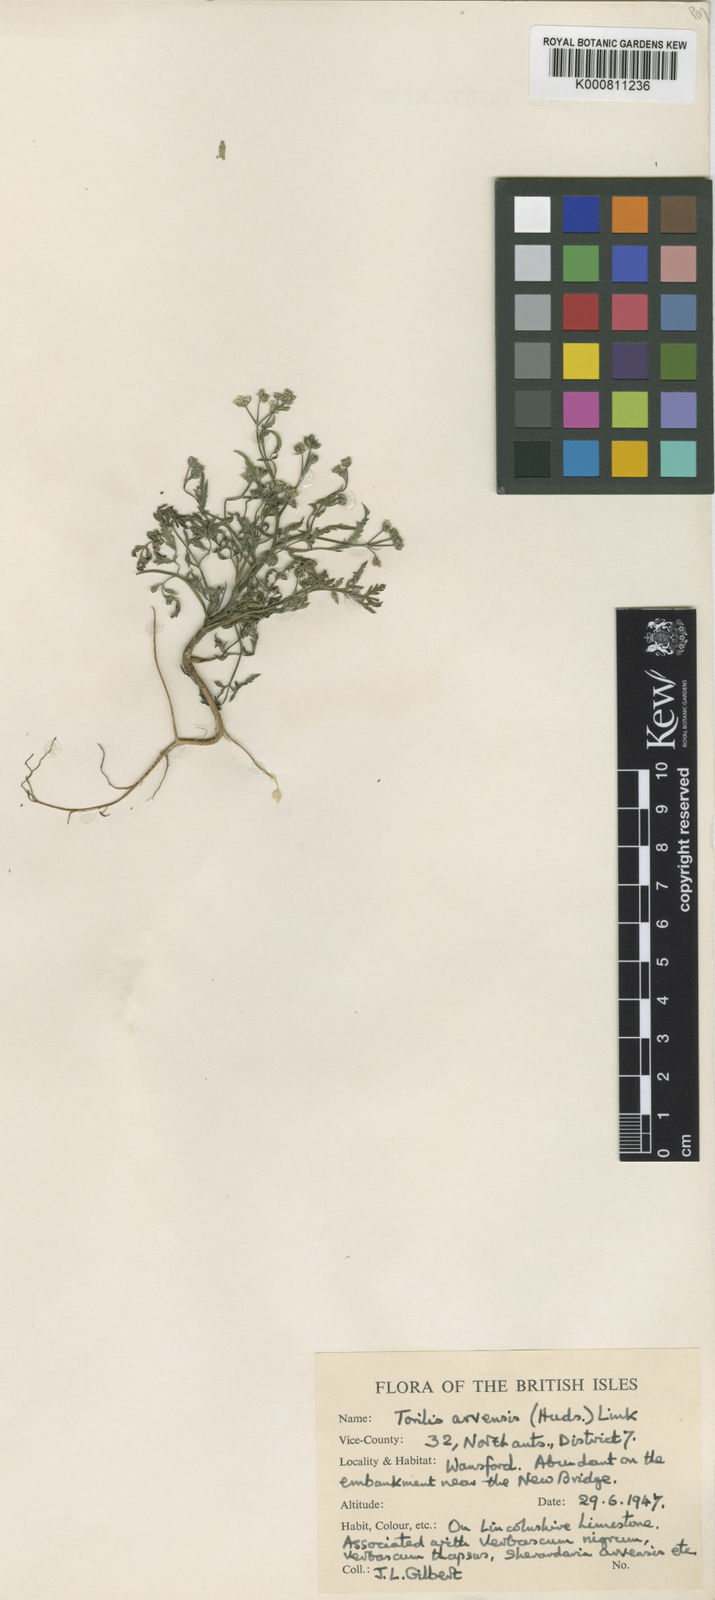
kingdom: Plantae
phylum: Tracheophyta
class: Magnoliopsida
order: Apiales
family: Apiaceae
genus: Torilis
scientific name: Torilis arvensis
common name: Spreading hedge-parsley
